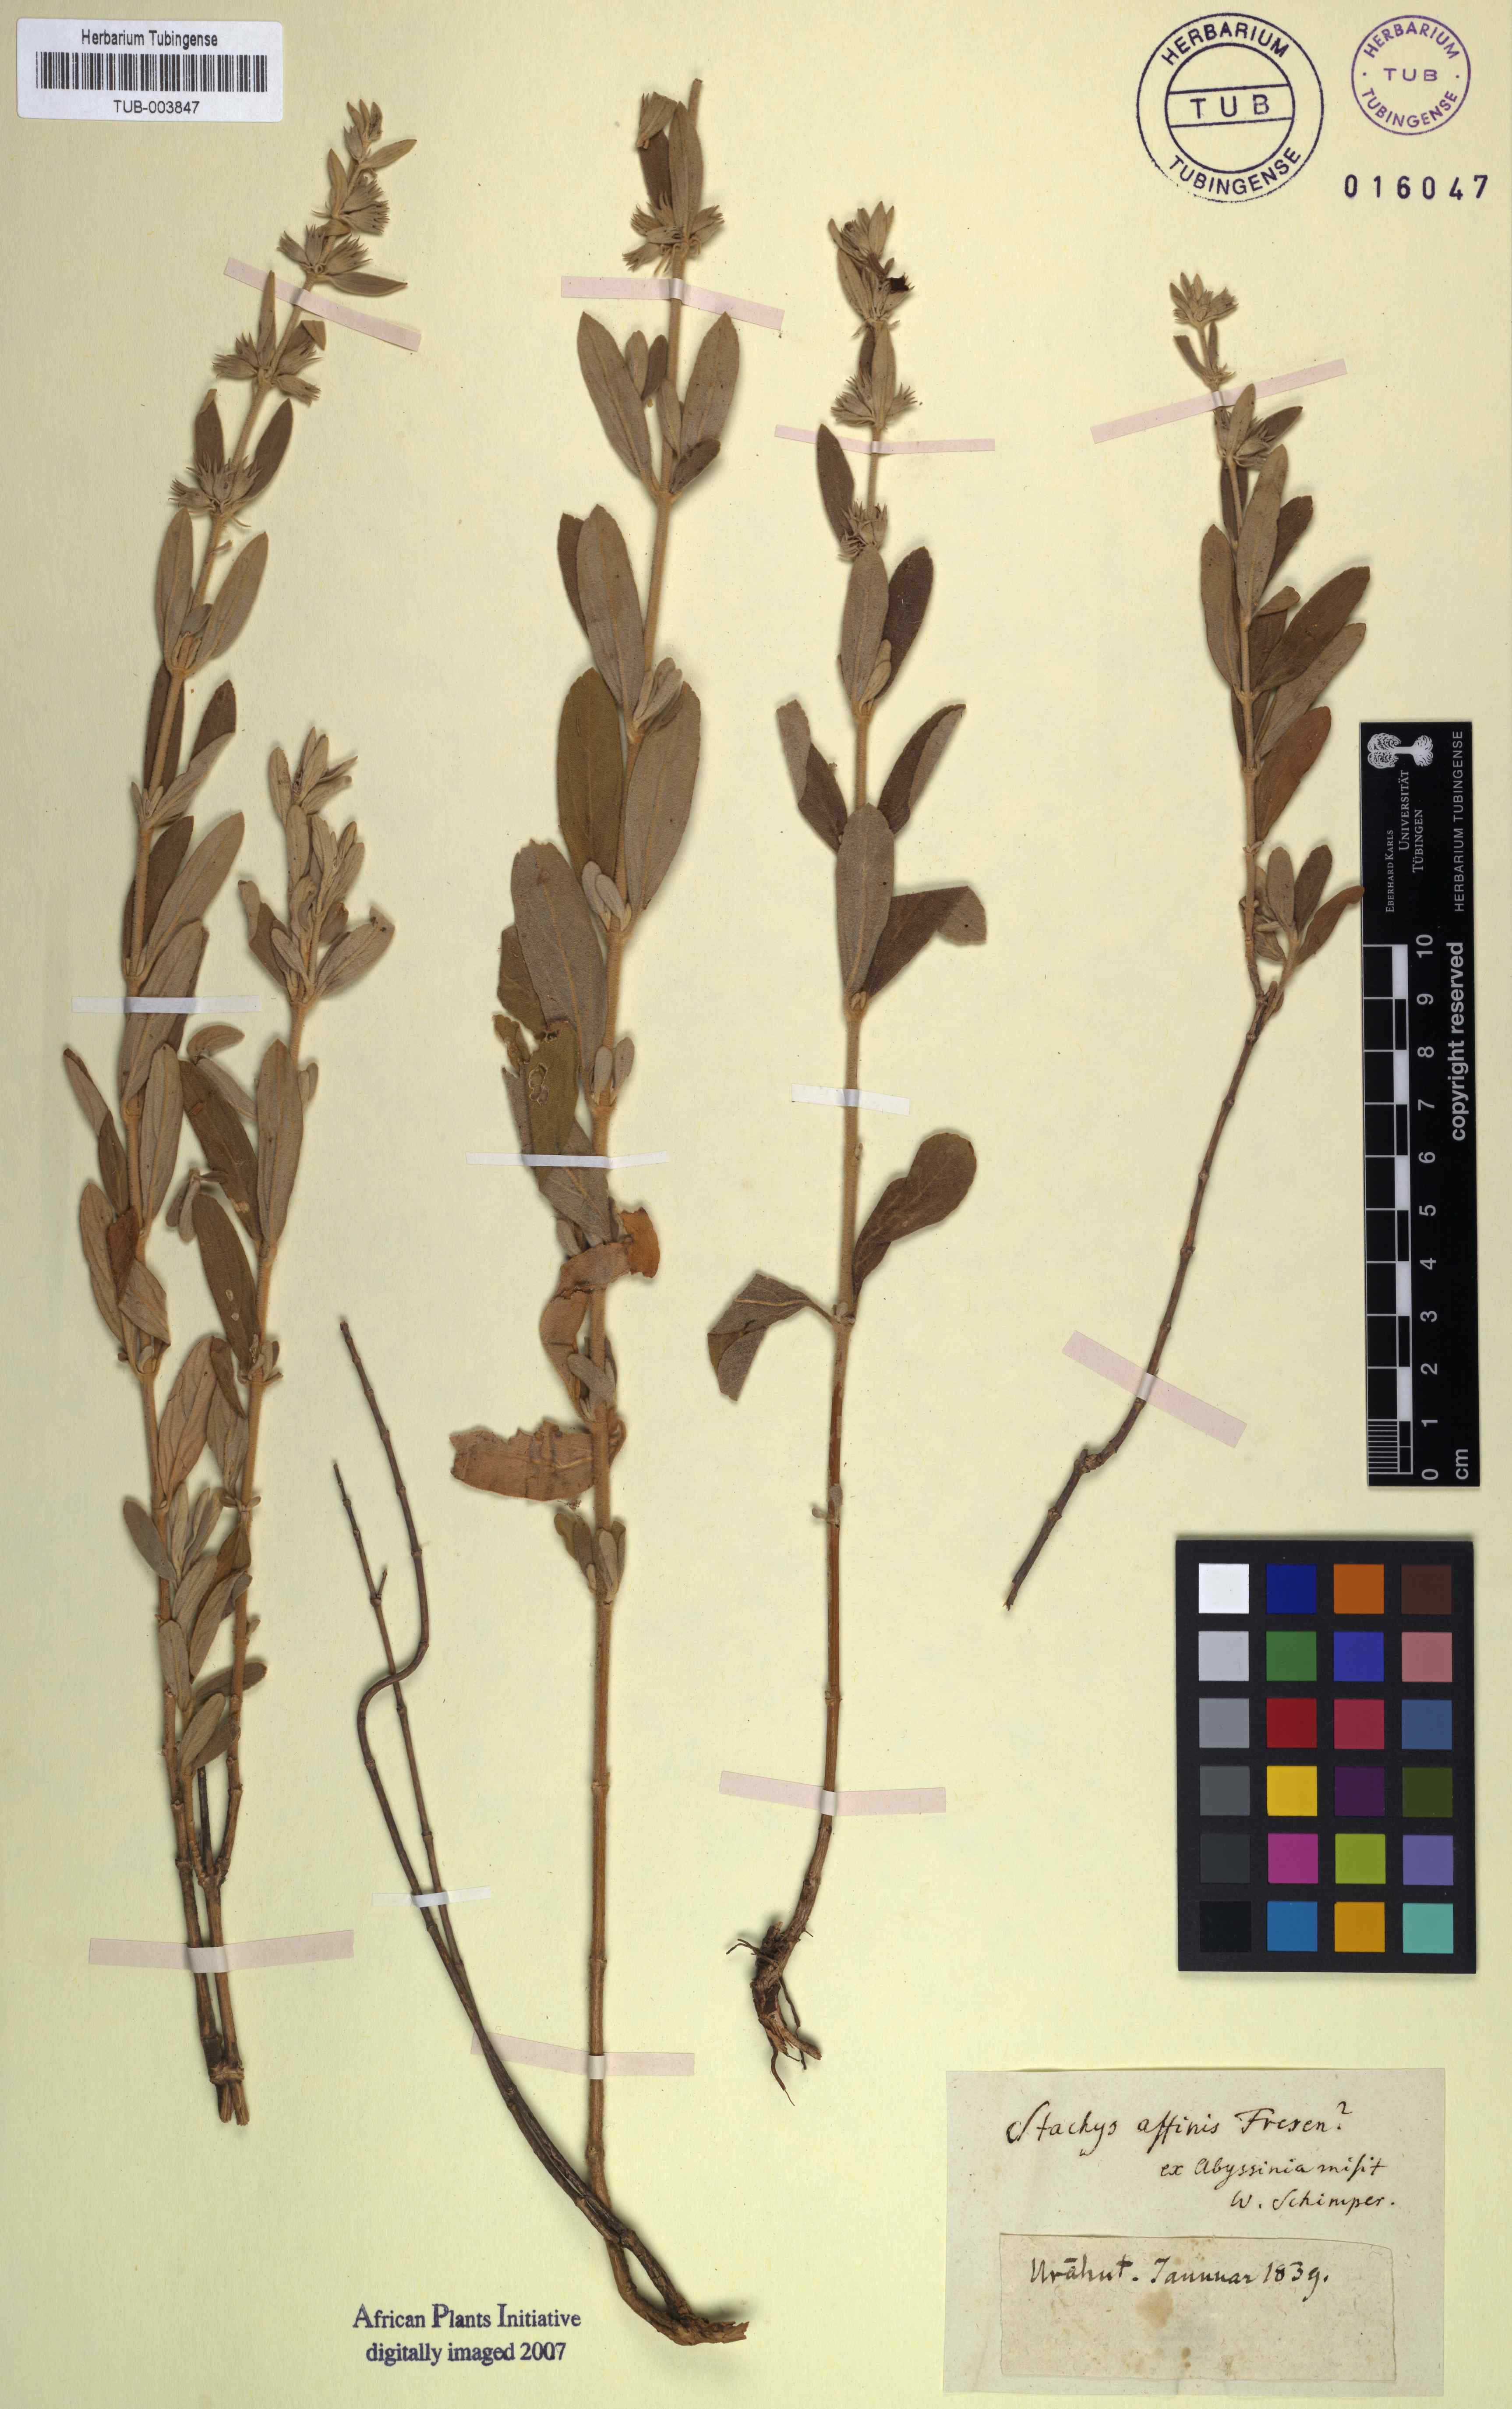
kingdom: Plantae
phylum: Tracheophyta
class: Magnoliopsida
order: Lamiales
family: Lamiaceae
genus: Stachys
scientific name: Stachys aegyptiaca
